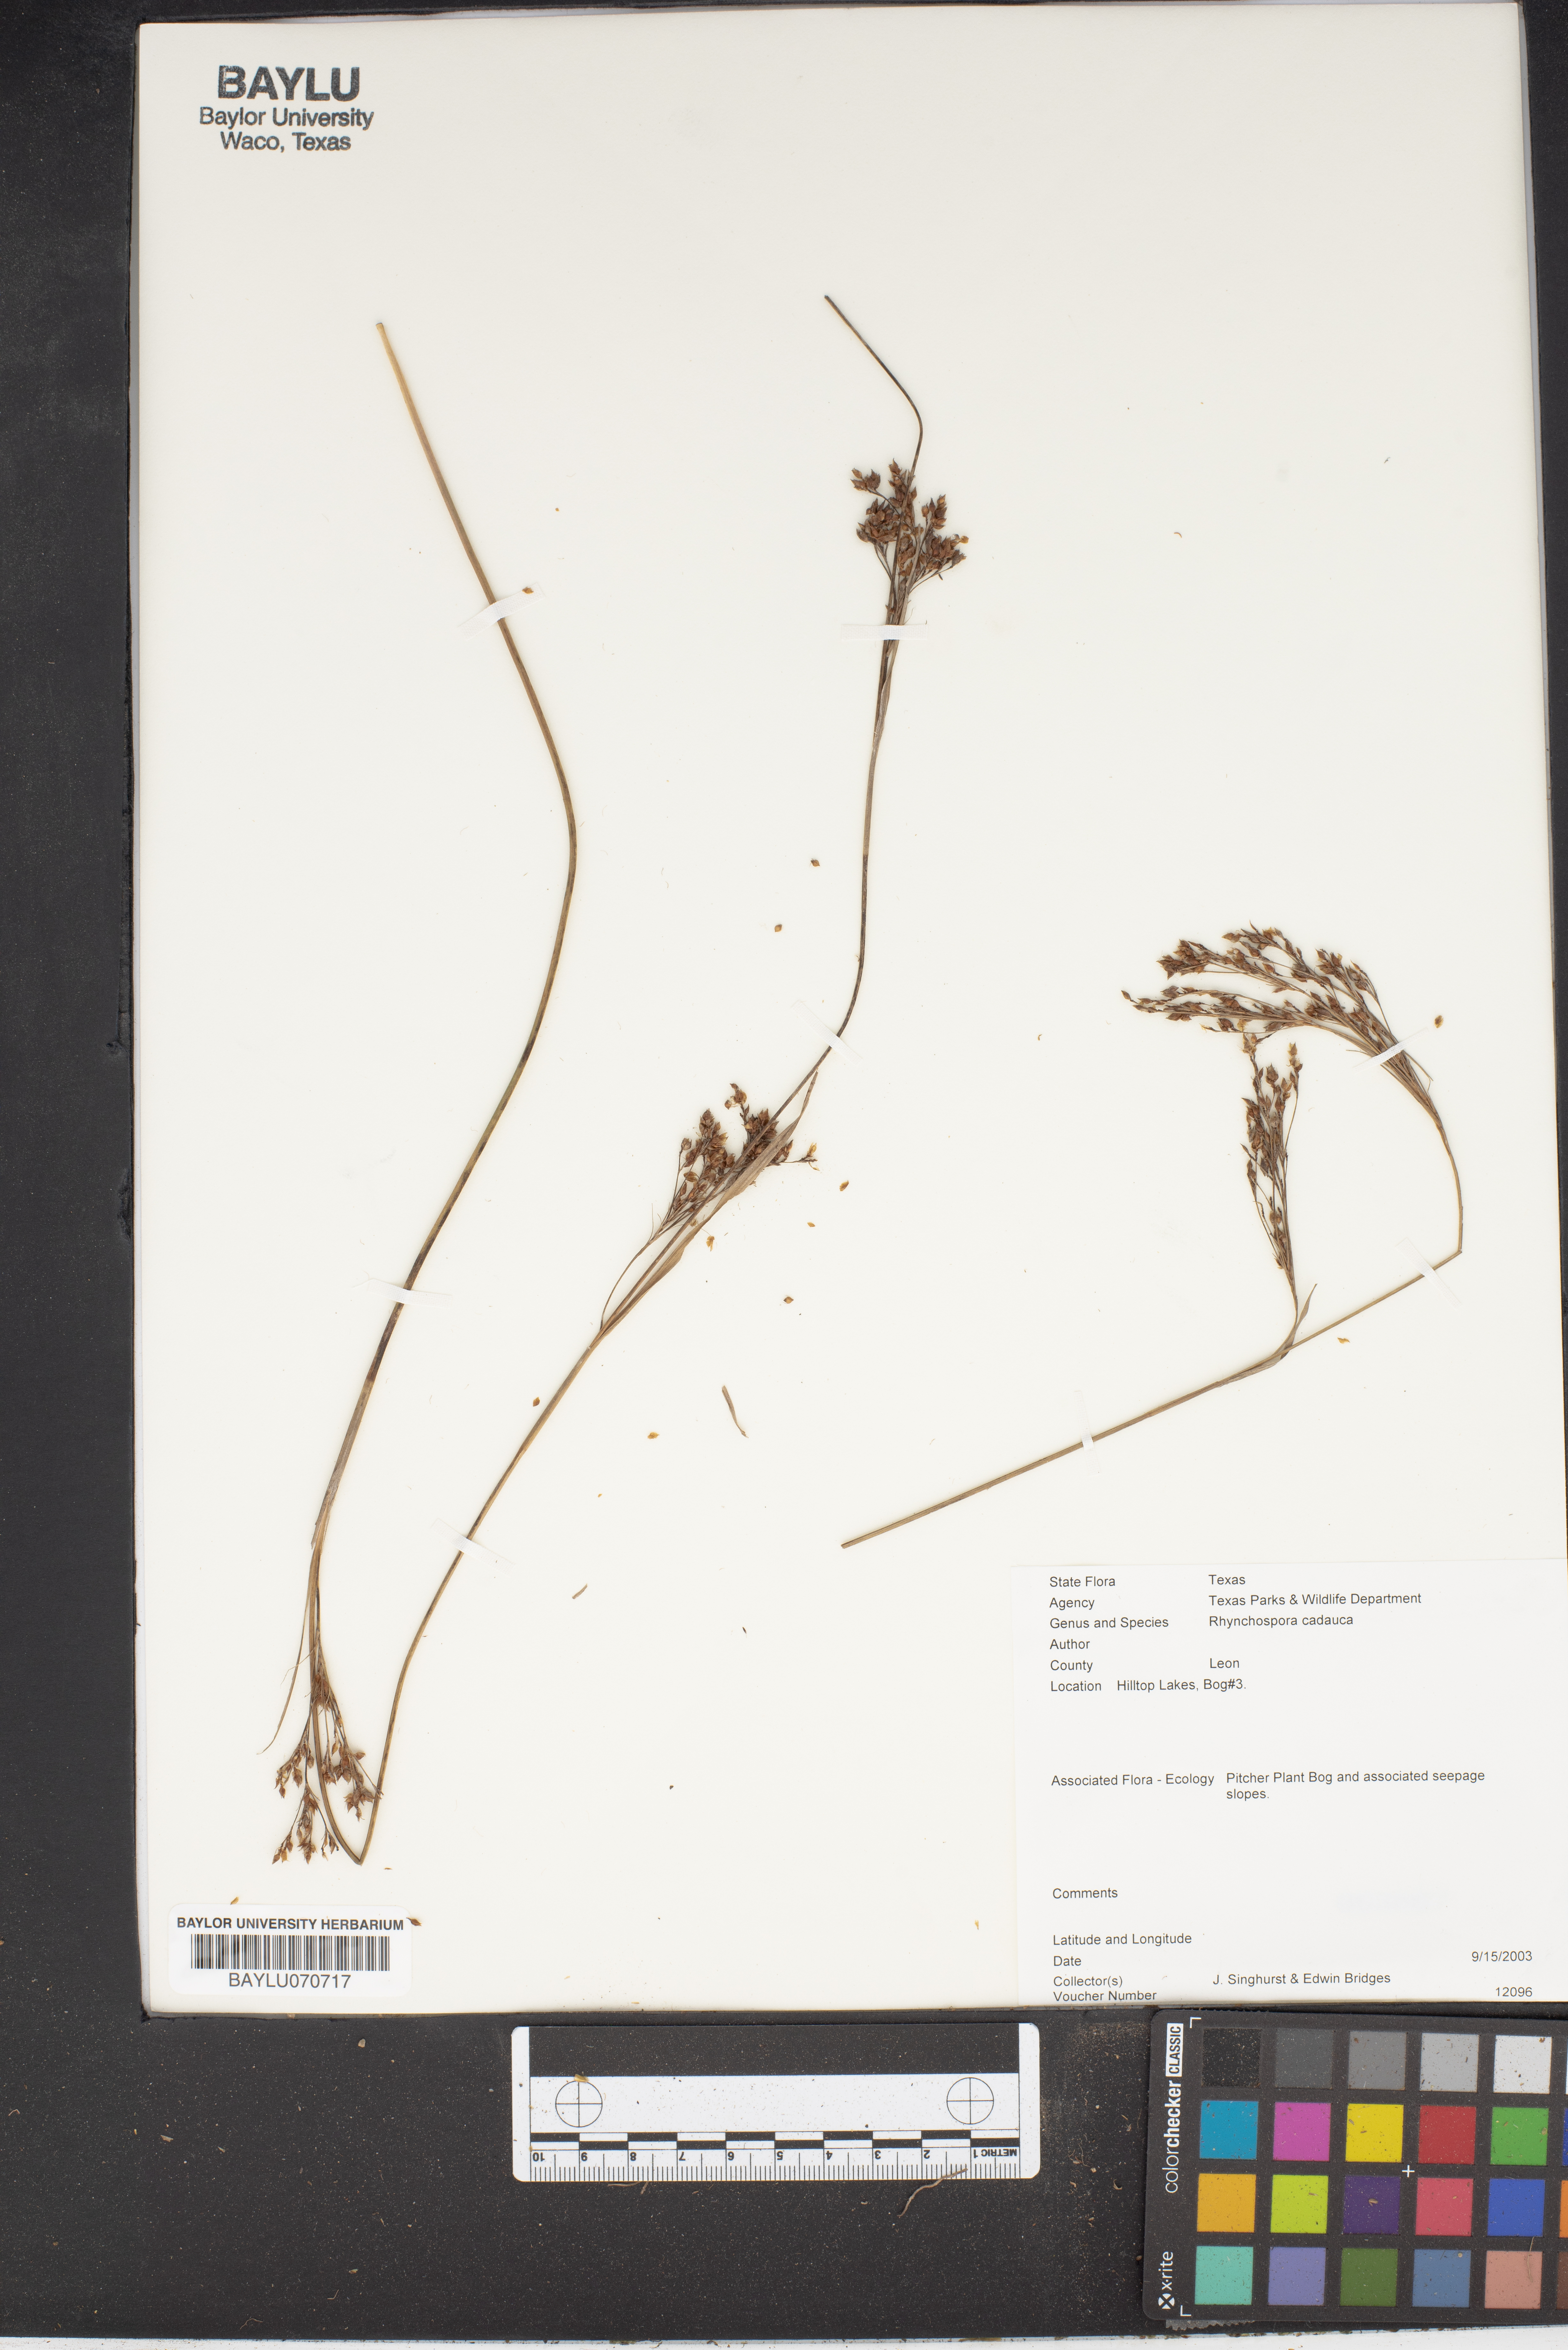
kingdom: Plantae
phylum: Tracheophyta
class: Liliopsida
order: Poales
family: Cyperaceae
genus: Rhynchospora
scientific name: Rhynchospora caduca
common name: Anglestem beaksedge
